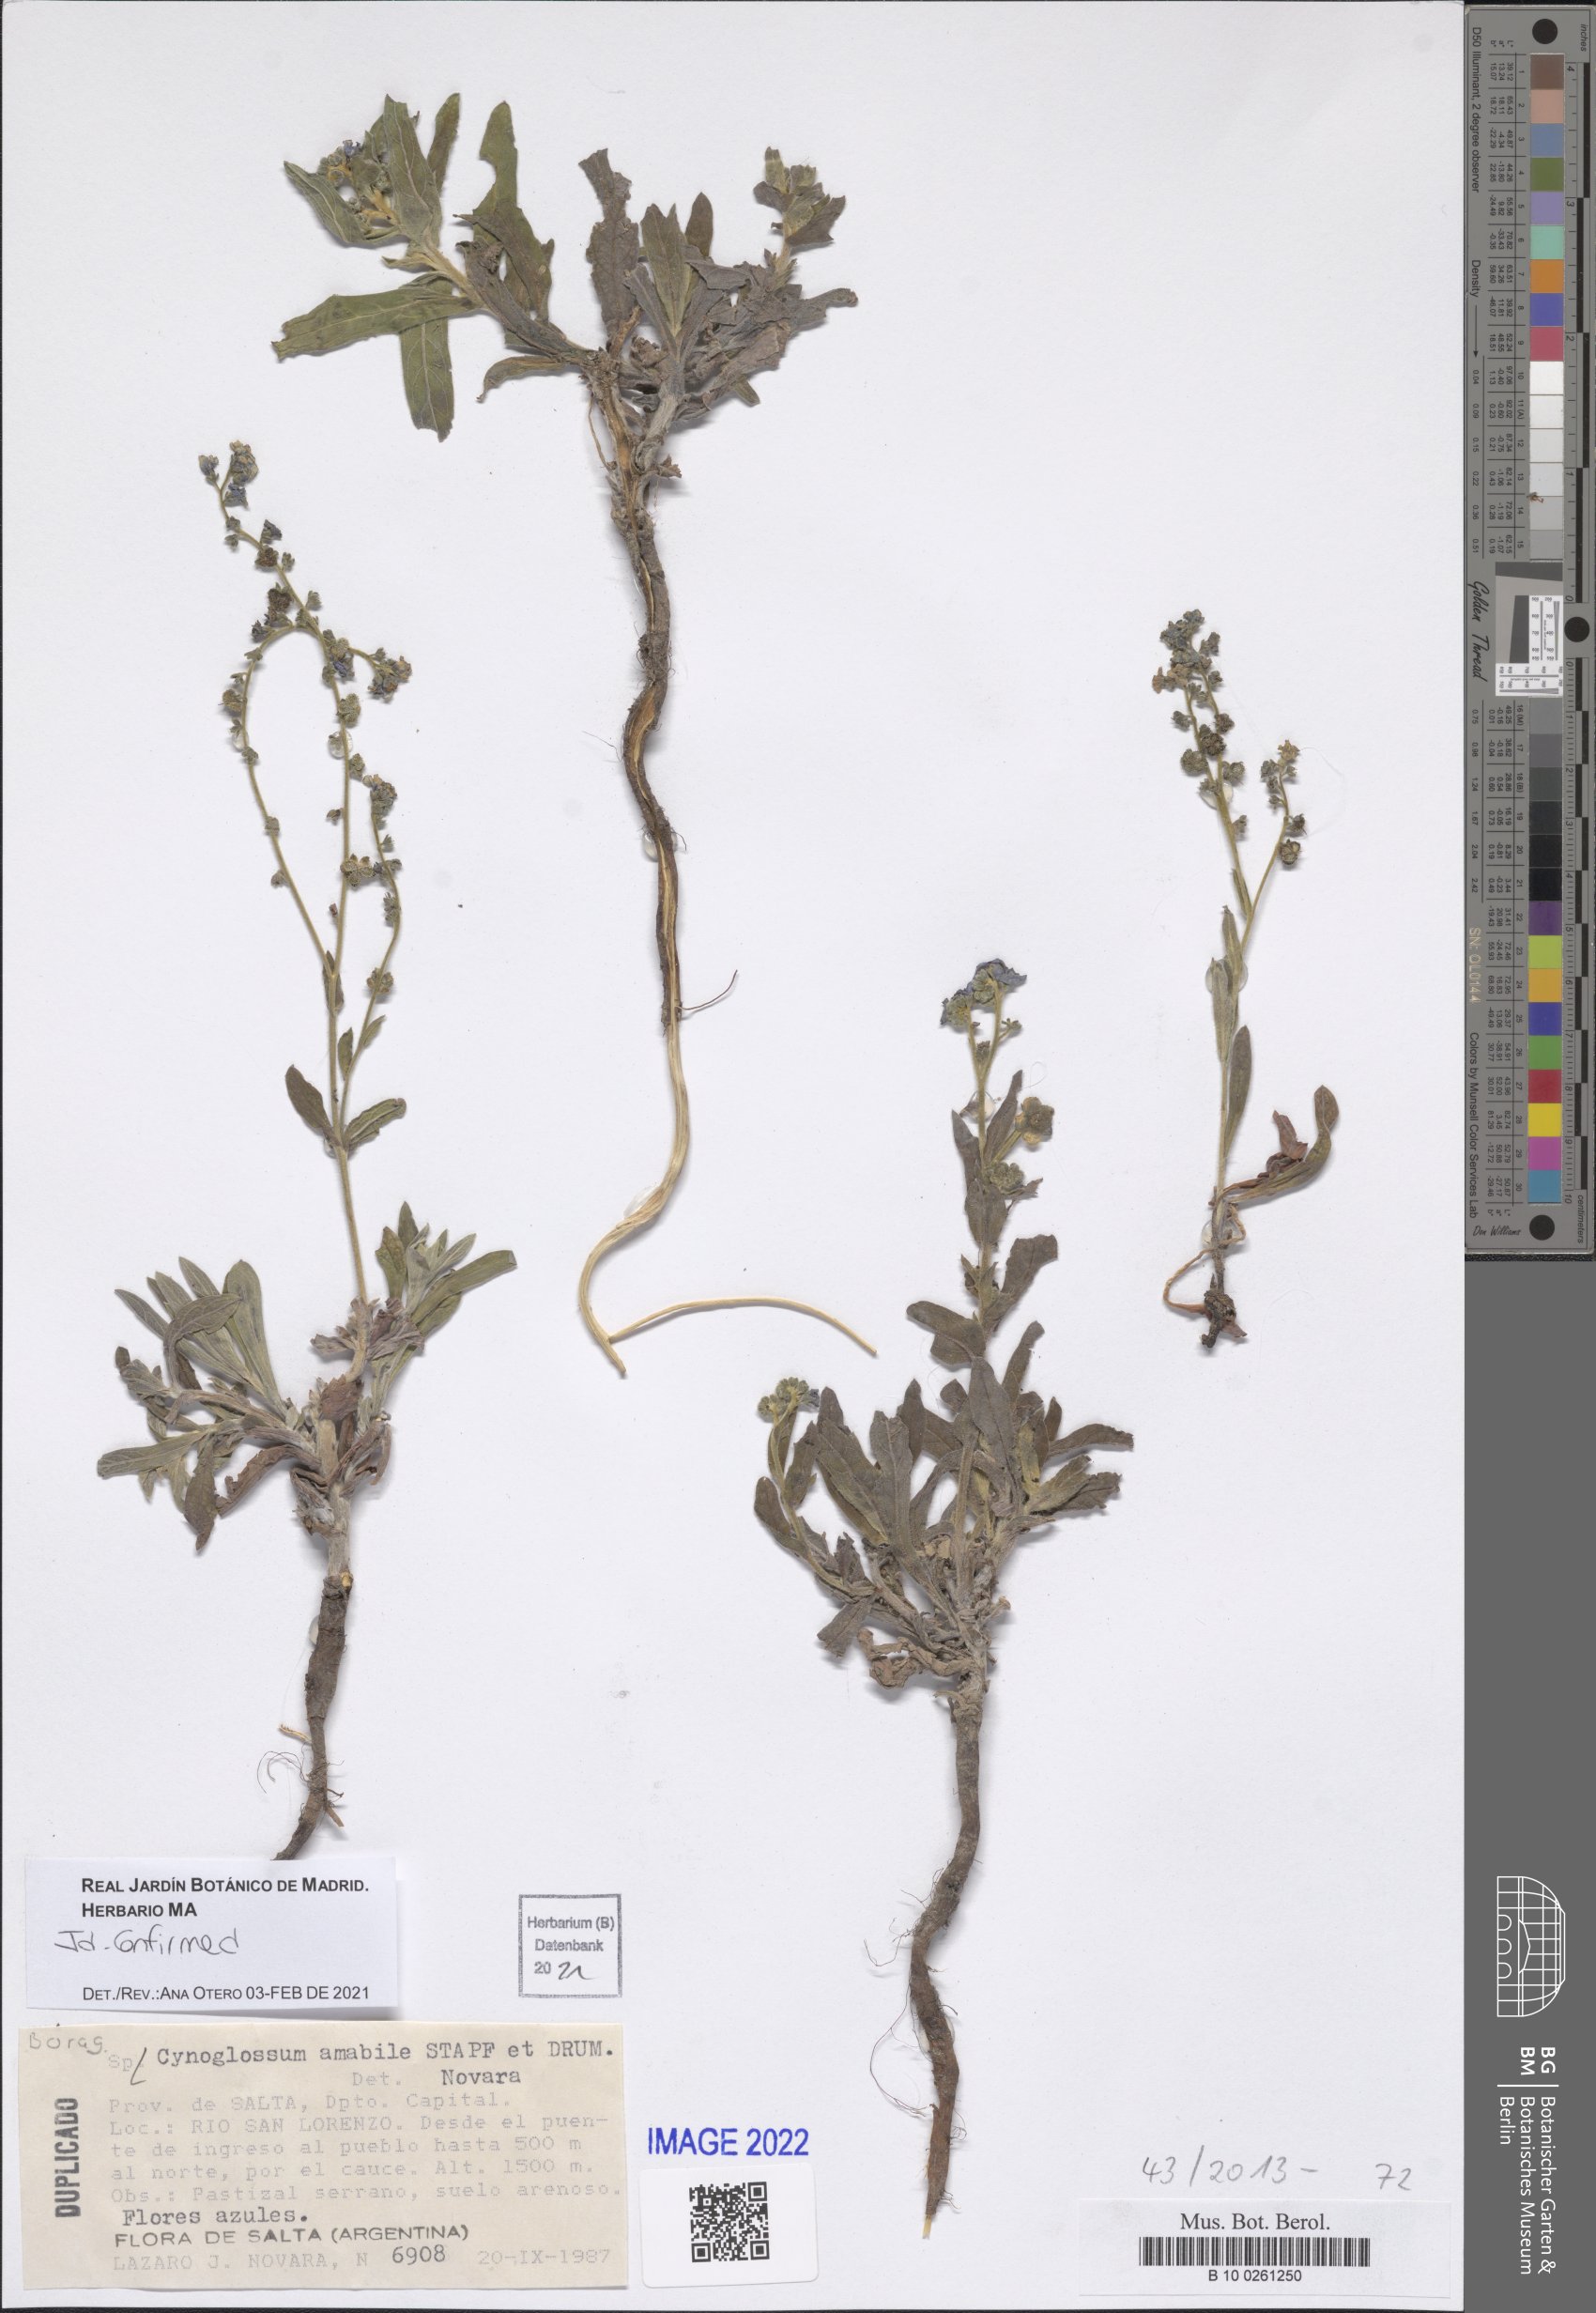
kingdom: Plantae
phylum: Tracheophyta
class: Magnoliopsida
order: Boraginales
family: Boraginaceae
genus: Cynoglossum
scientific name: Cynoglossum amabile
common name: Chinese hound's tongue
